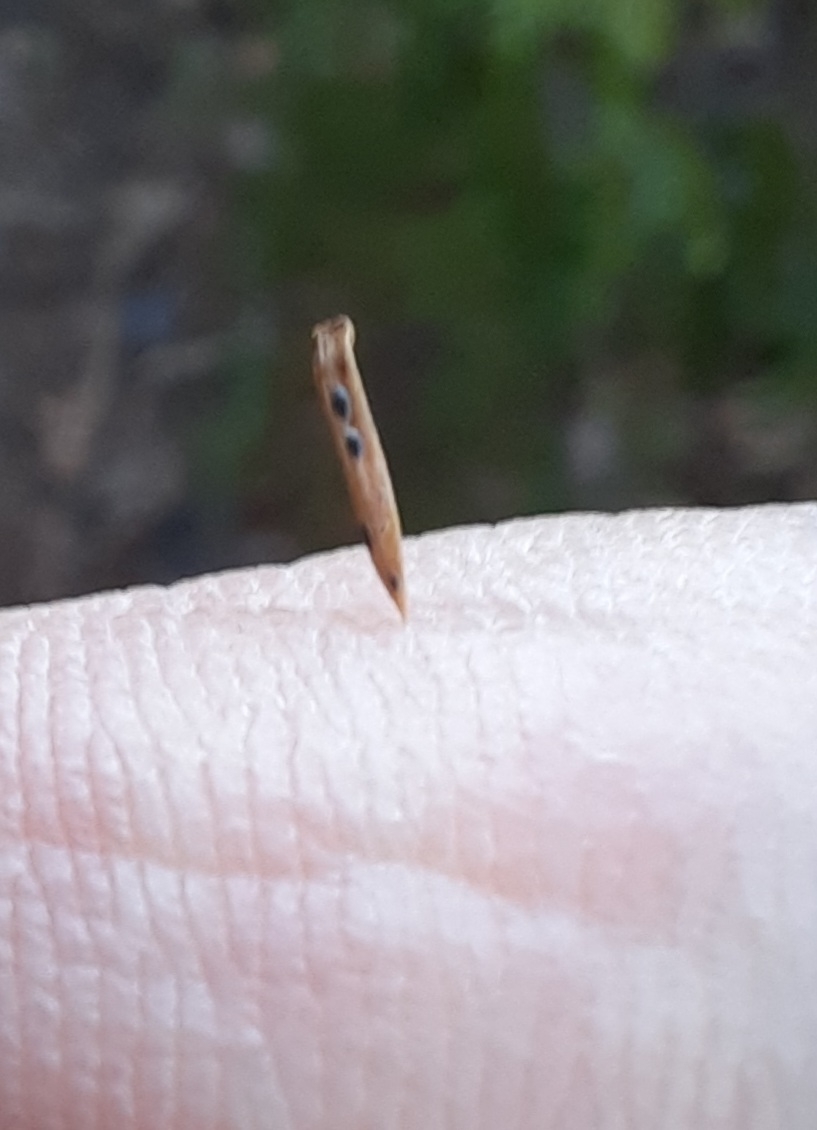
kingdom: Fungi
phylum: Ascomycota
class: Leotiomycetes
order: Rhytismatales
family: Rhytismataceae
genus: Lophodermium
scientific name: Lophodermium juniperinum
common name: ene-fureplet
